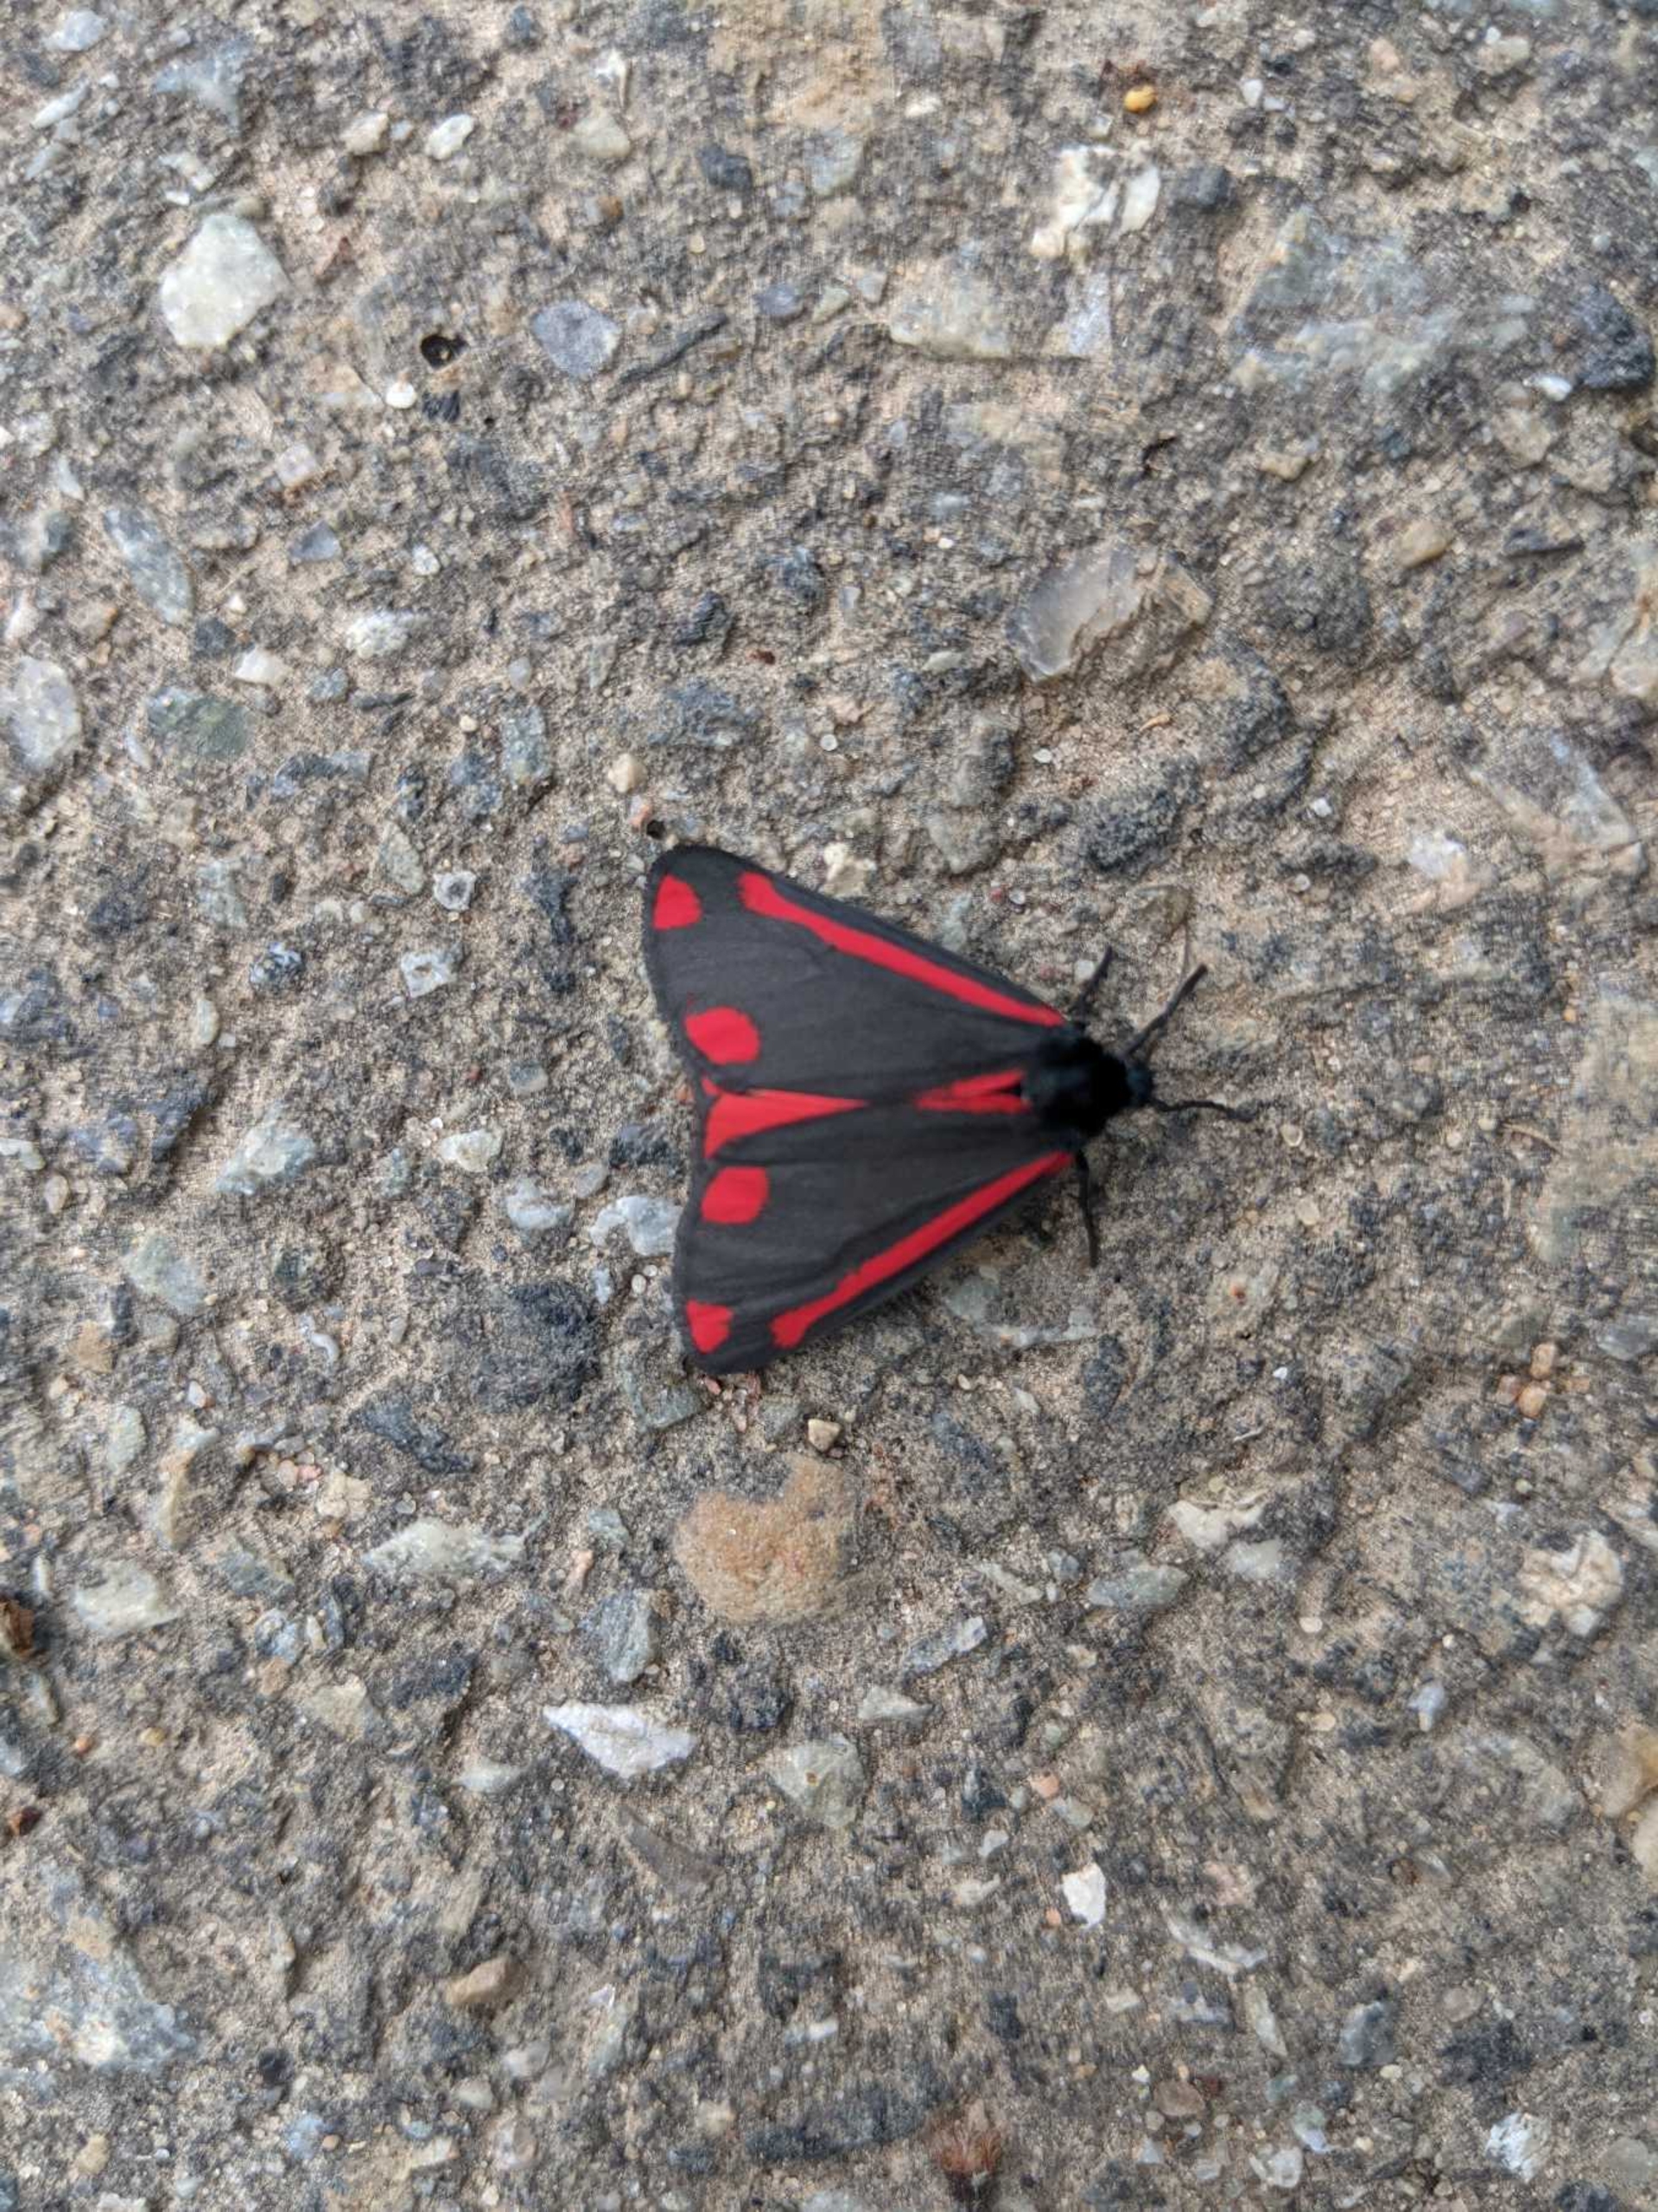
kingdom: Animalia
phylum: Arthropoda
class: Insecta
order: Lepidoptera
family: Erebidae
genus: Tyria
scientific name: Tyria jacobaeae
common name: Blodplet
